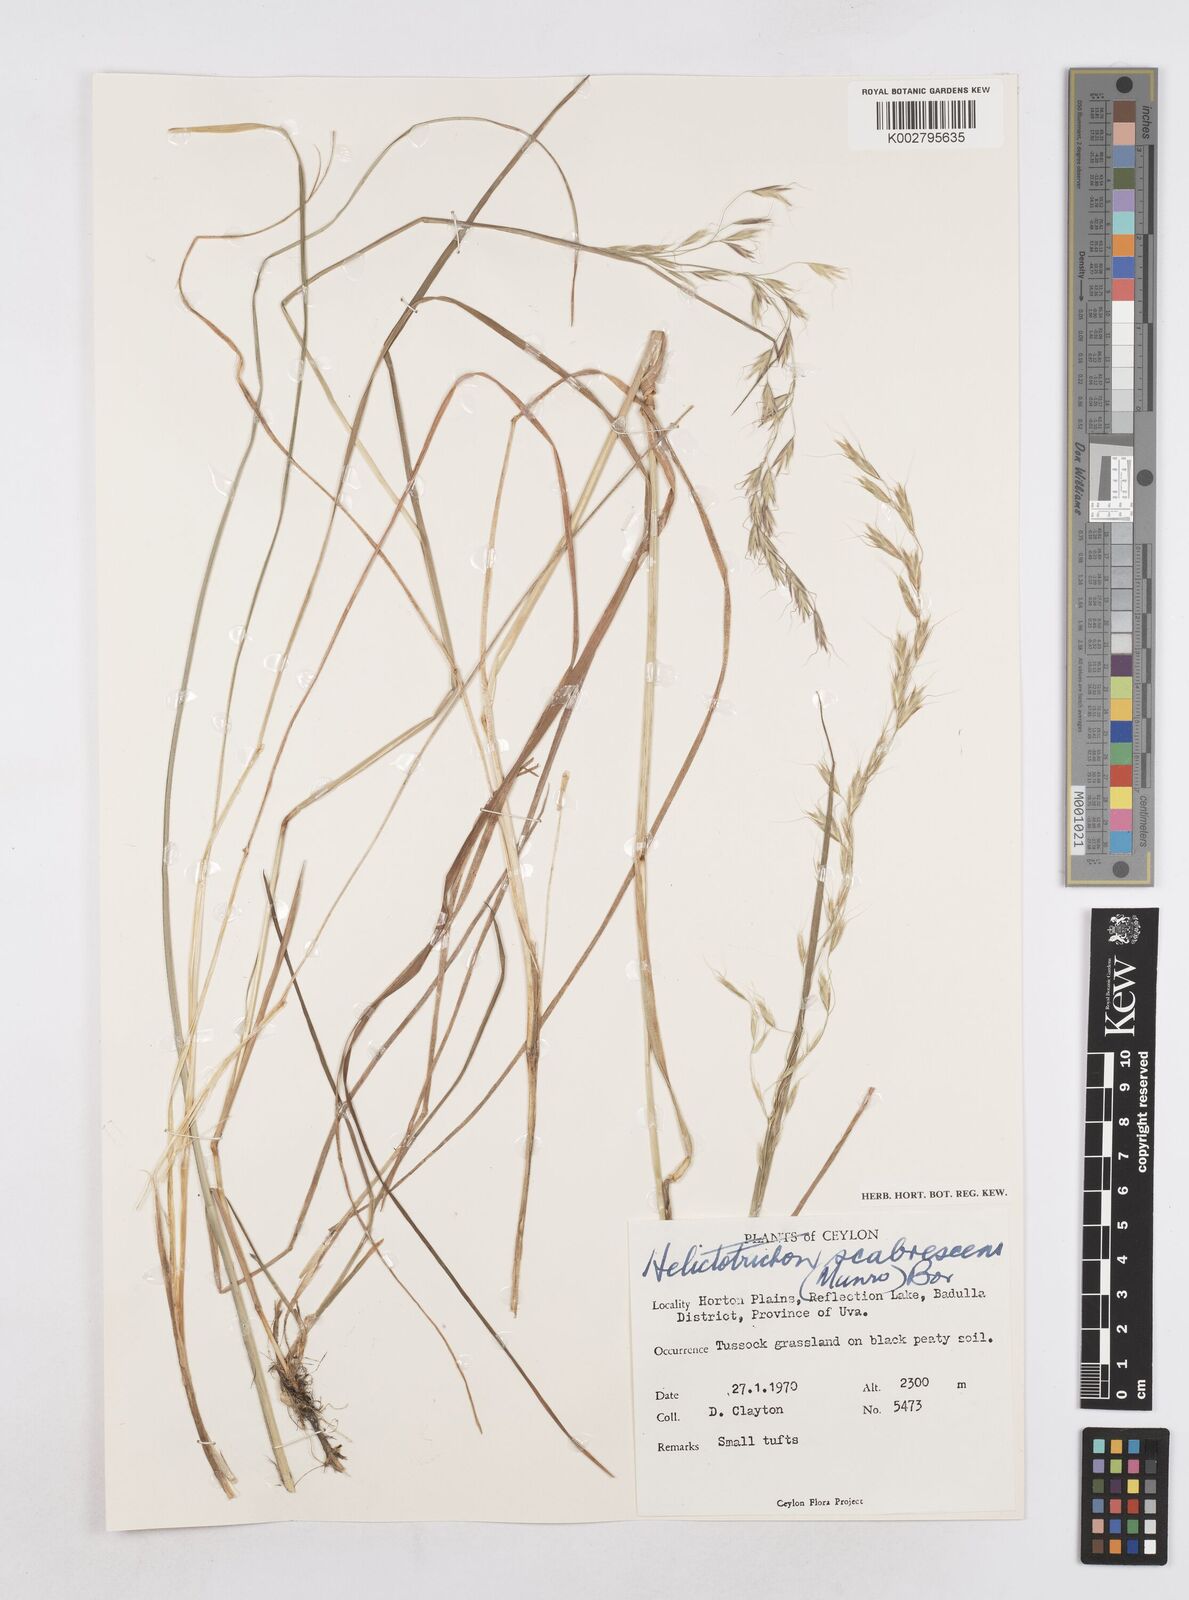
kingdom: Plantae
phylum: Tracheophyta
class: Liliopsida
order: Poales
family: Poaceae
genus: Trisetopsis
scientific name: Trisetopsis virescens
